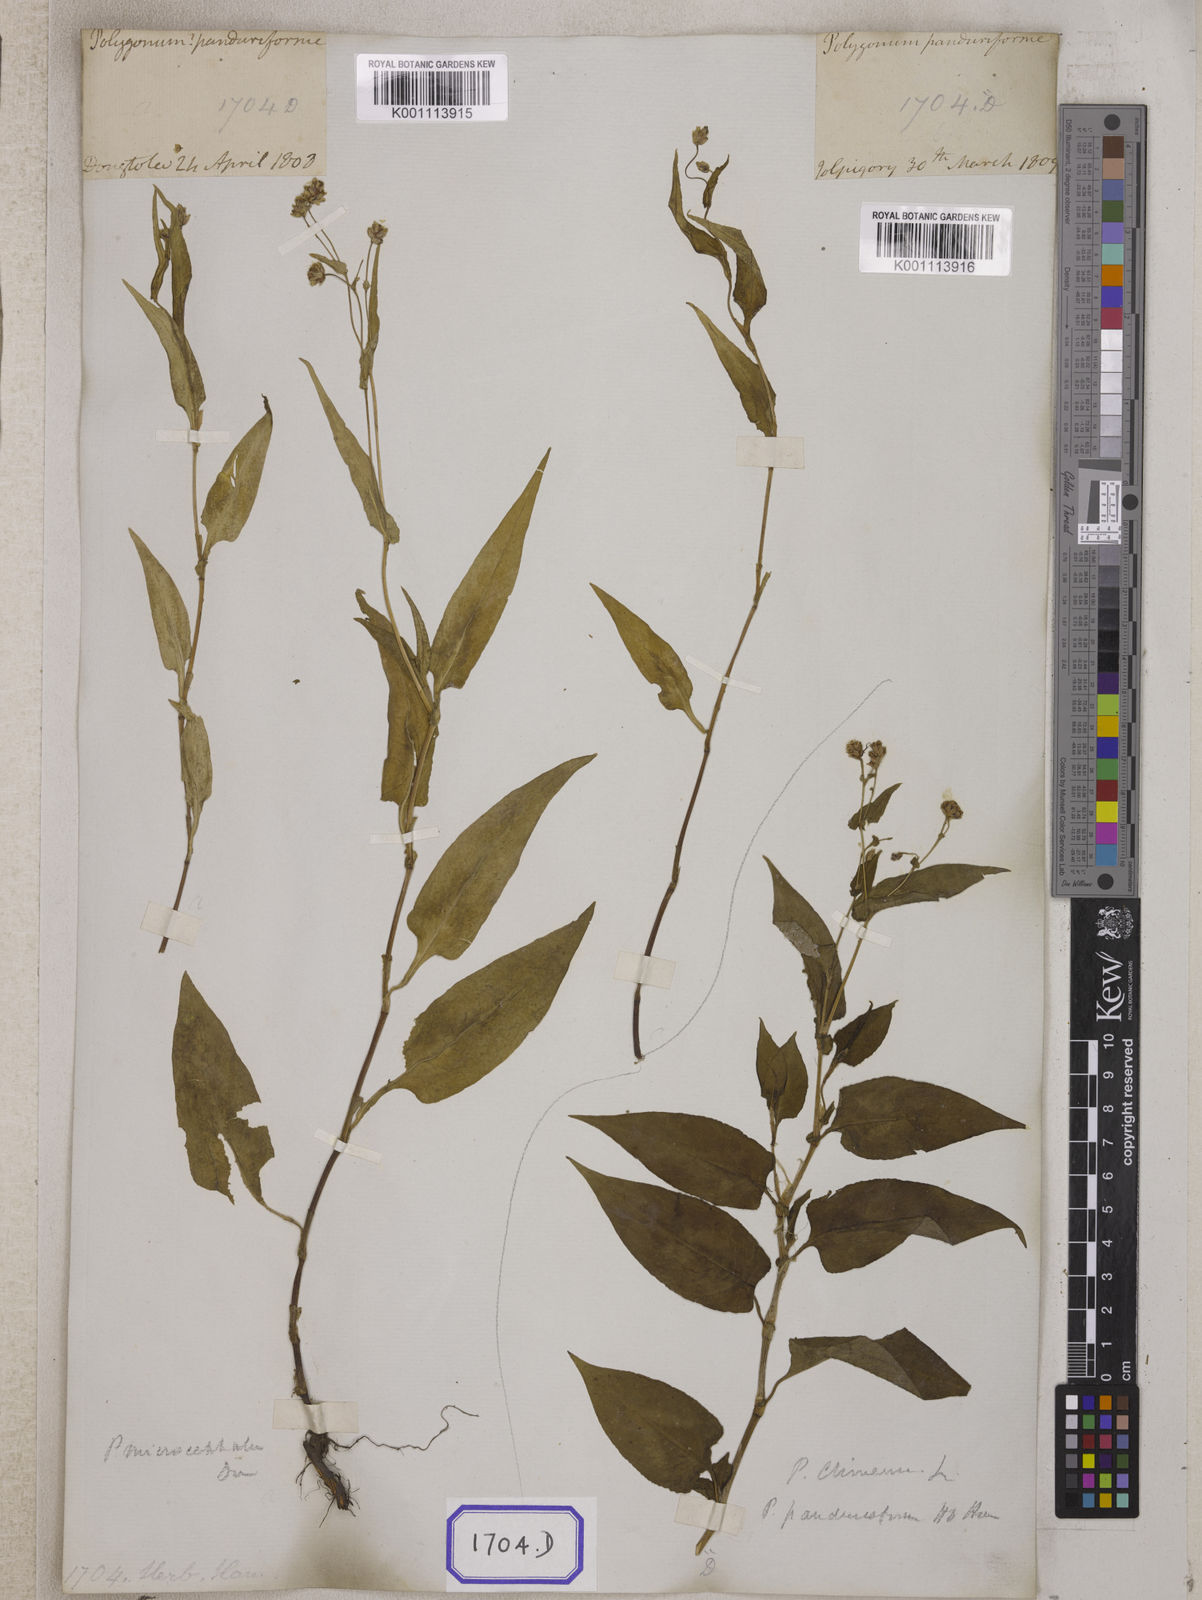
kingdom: Plantae
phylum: Tracheophyta
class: Magnoliopsida
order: Caryophyllales
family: Polygonaceae
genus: Persicaria
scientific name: Persicaria microcephala
